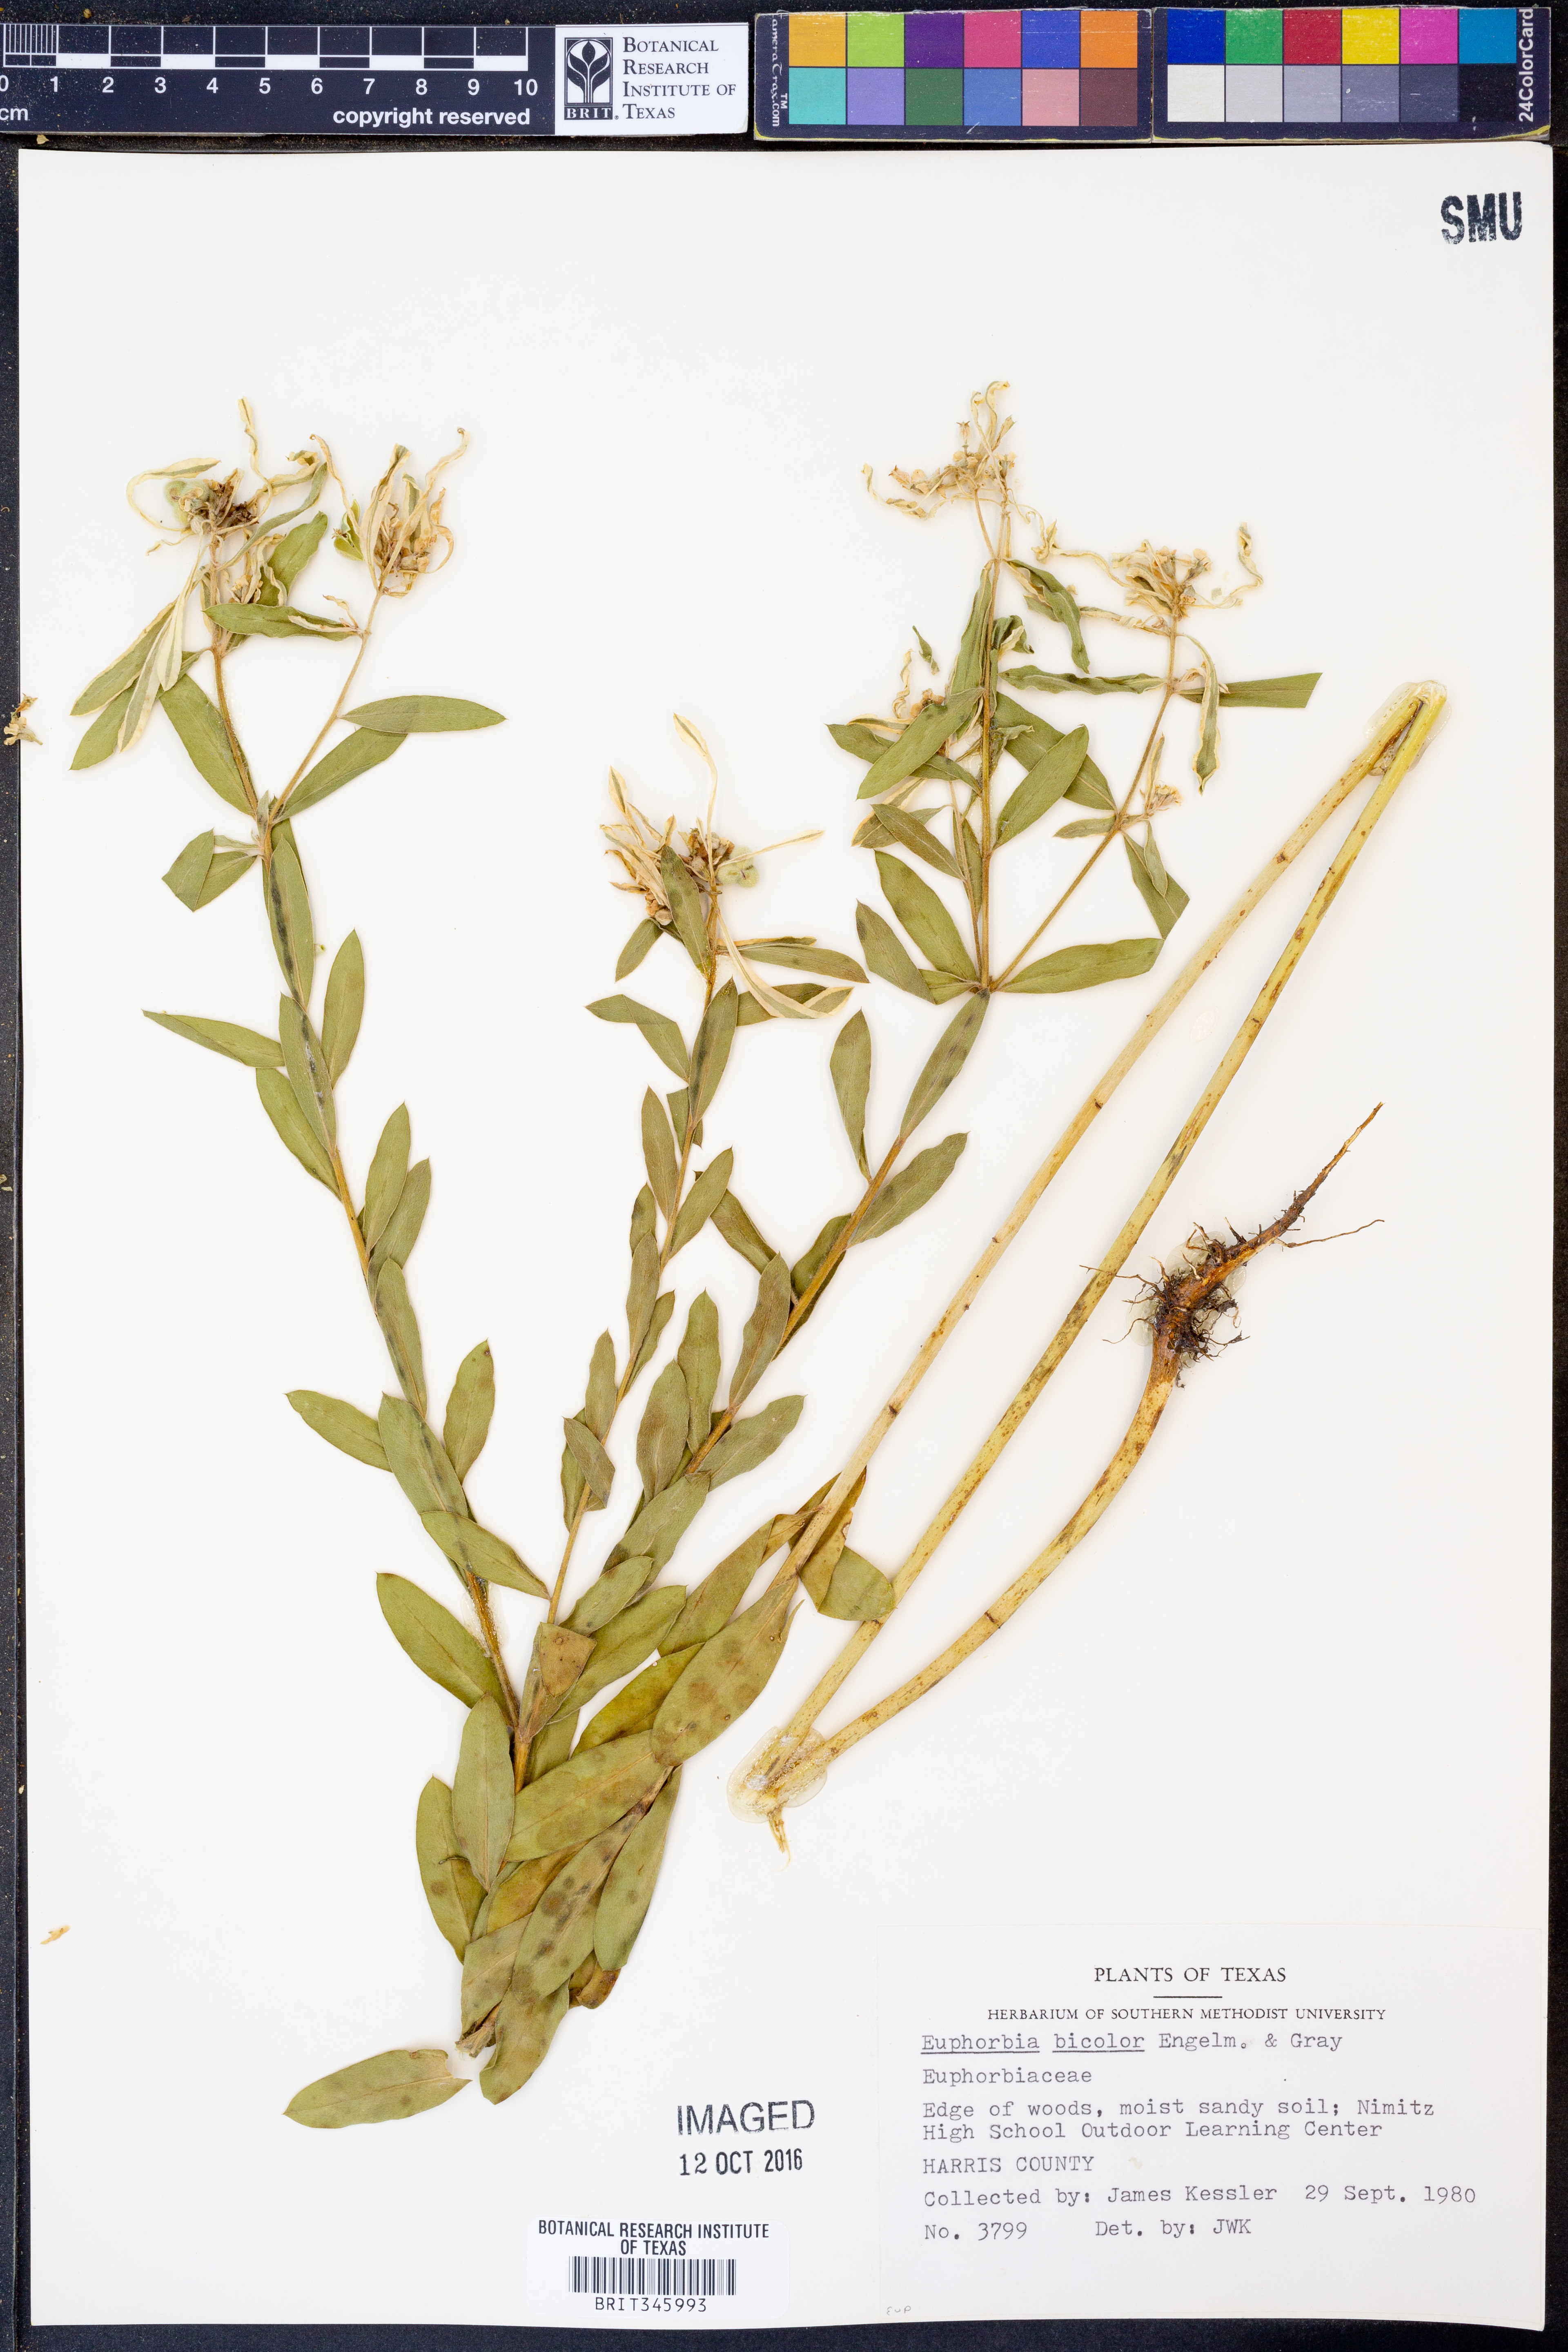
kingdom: Plantae
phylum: Tracheophyta
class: Magnoliopsida
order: Malpighiales
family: Euphorbiaceae
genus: Euphorbia
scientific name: Euphorbia bicolor
